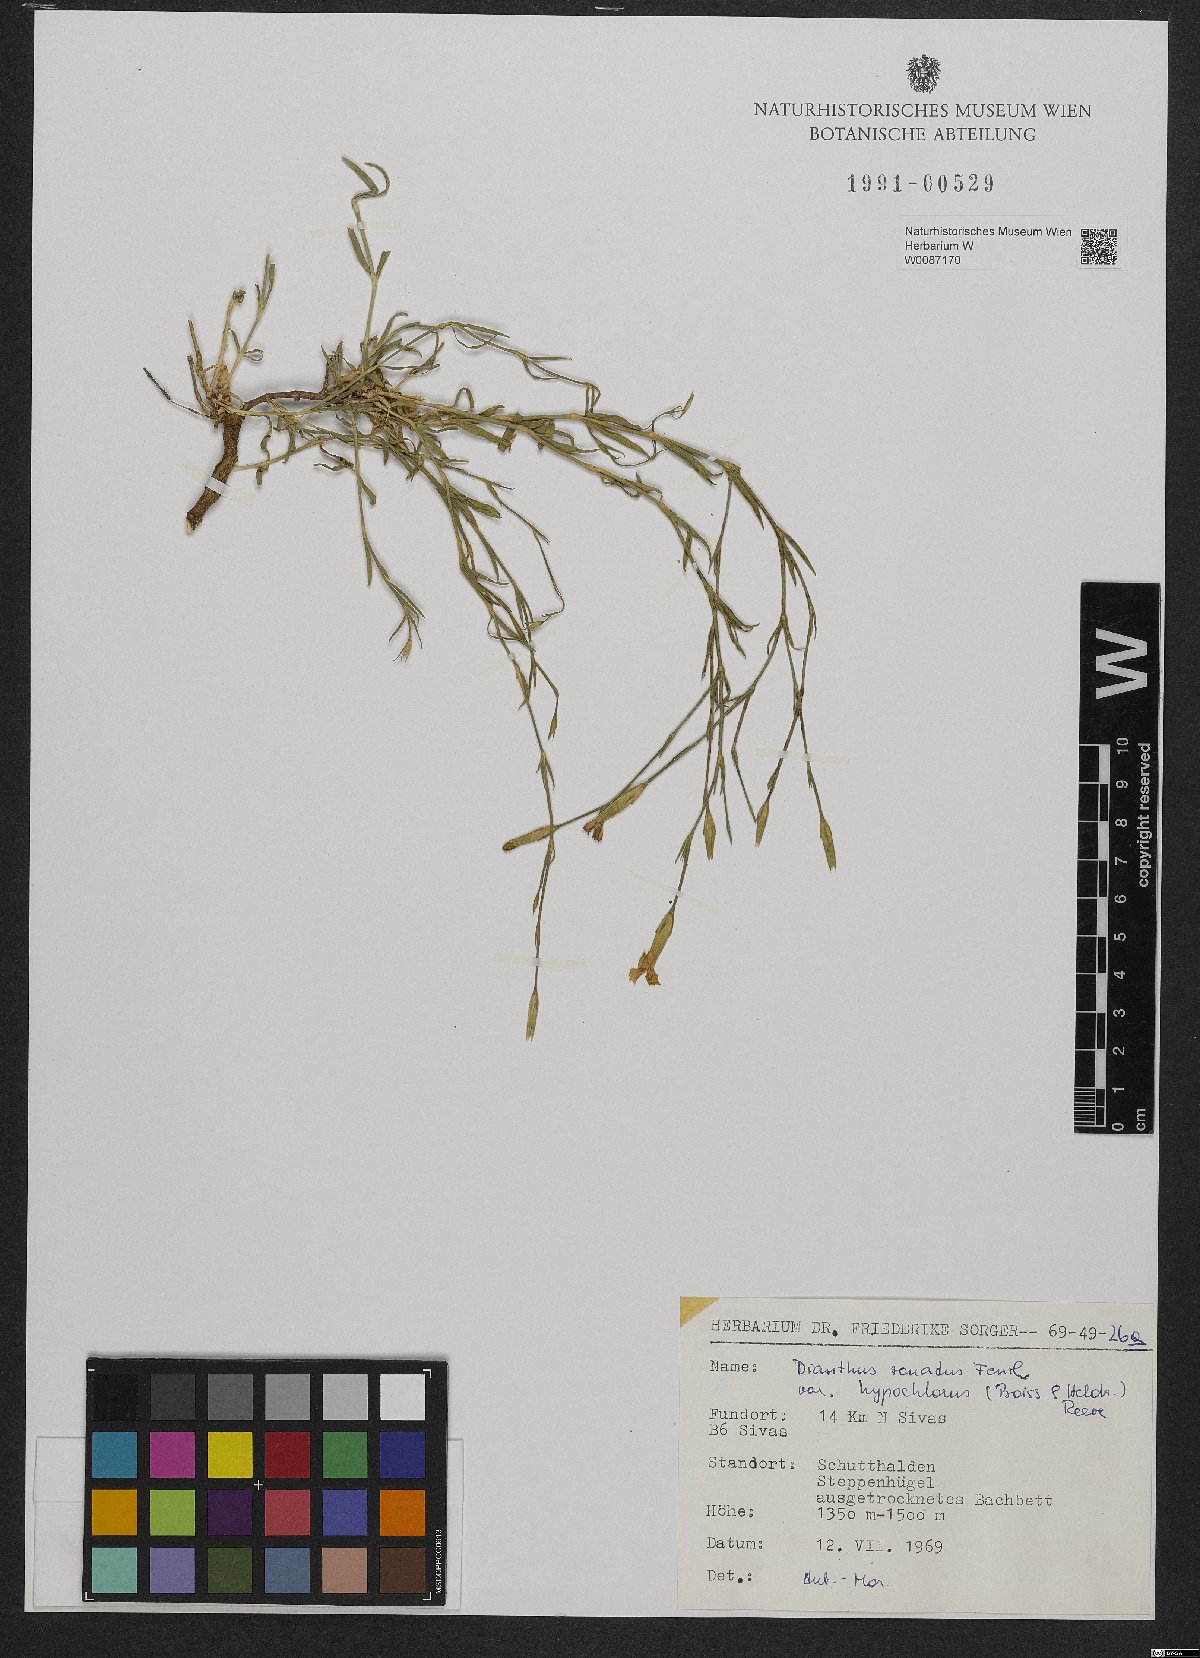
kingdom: Plantae
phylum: Tracheophyta
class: Magnoliopsida
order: Caryophyllales
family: Caryophyllaceae
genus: Dianthus
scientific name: Dianthus zonatus
